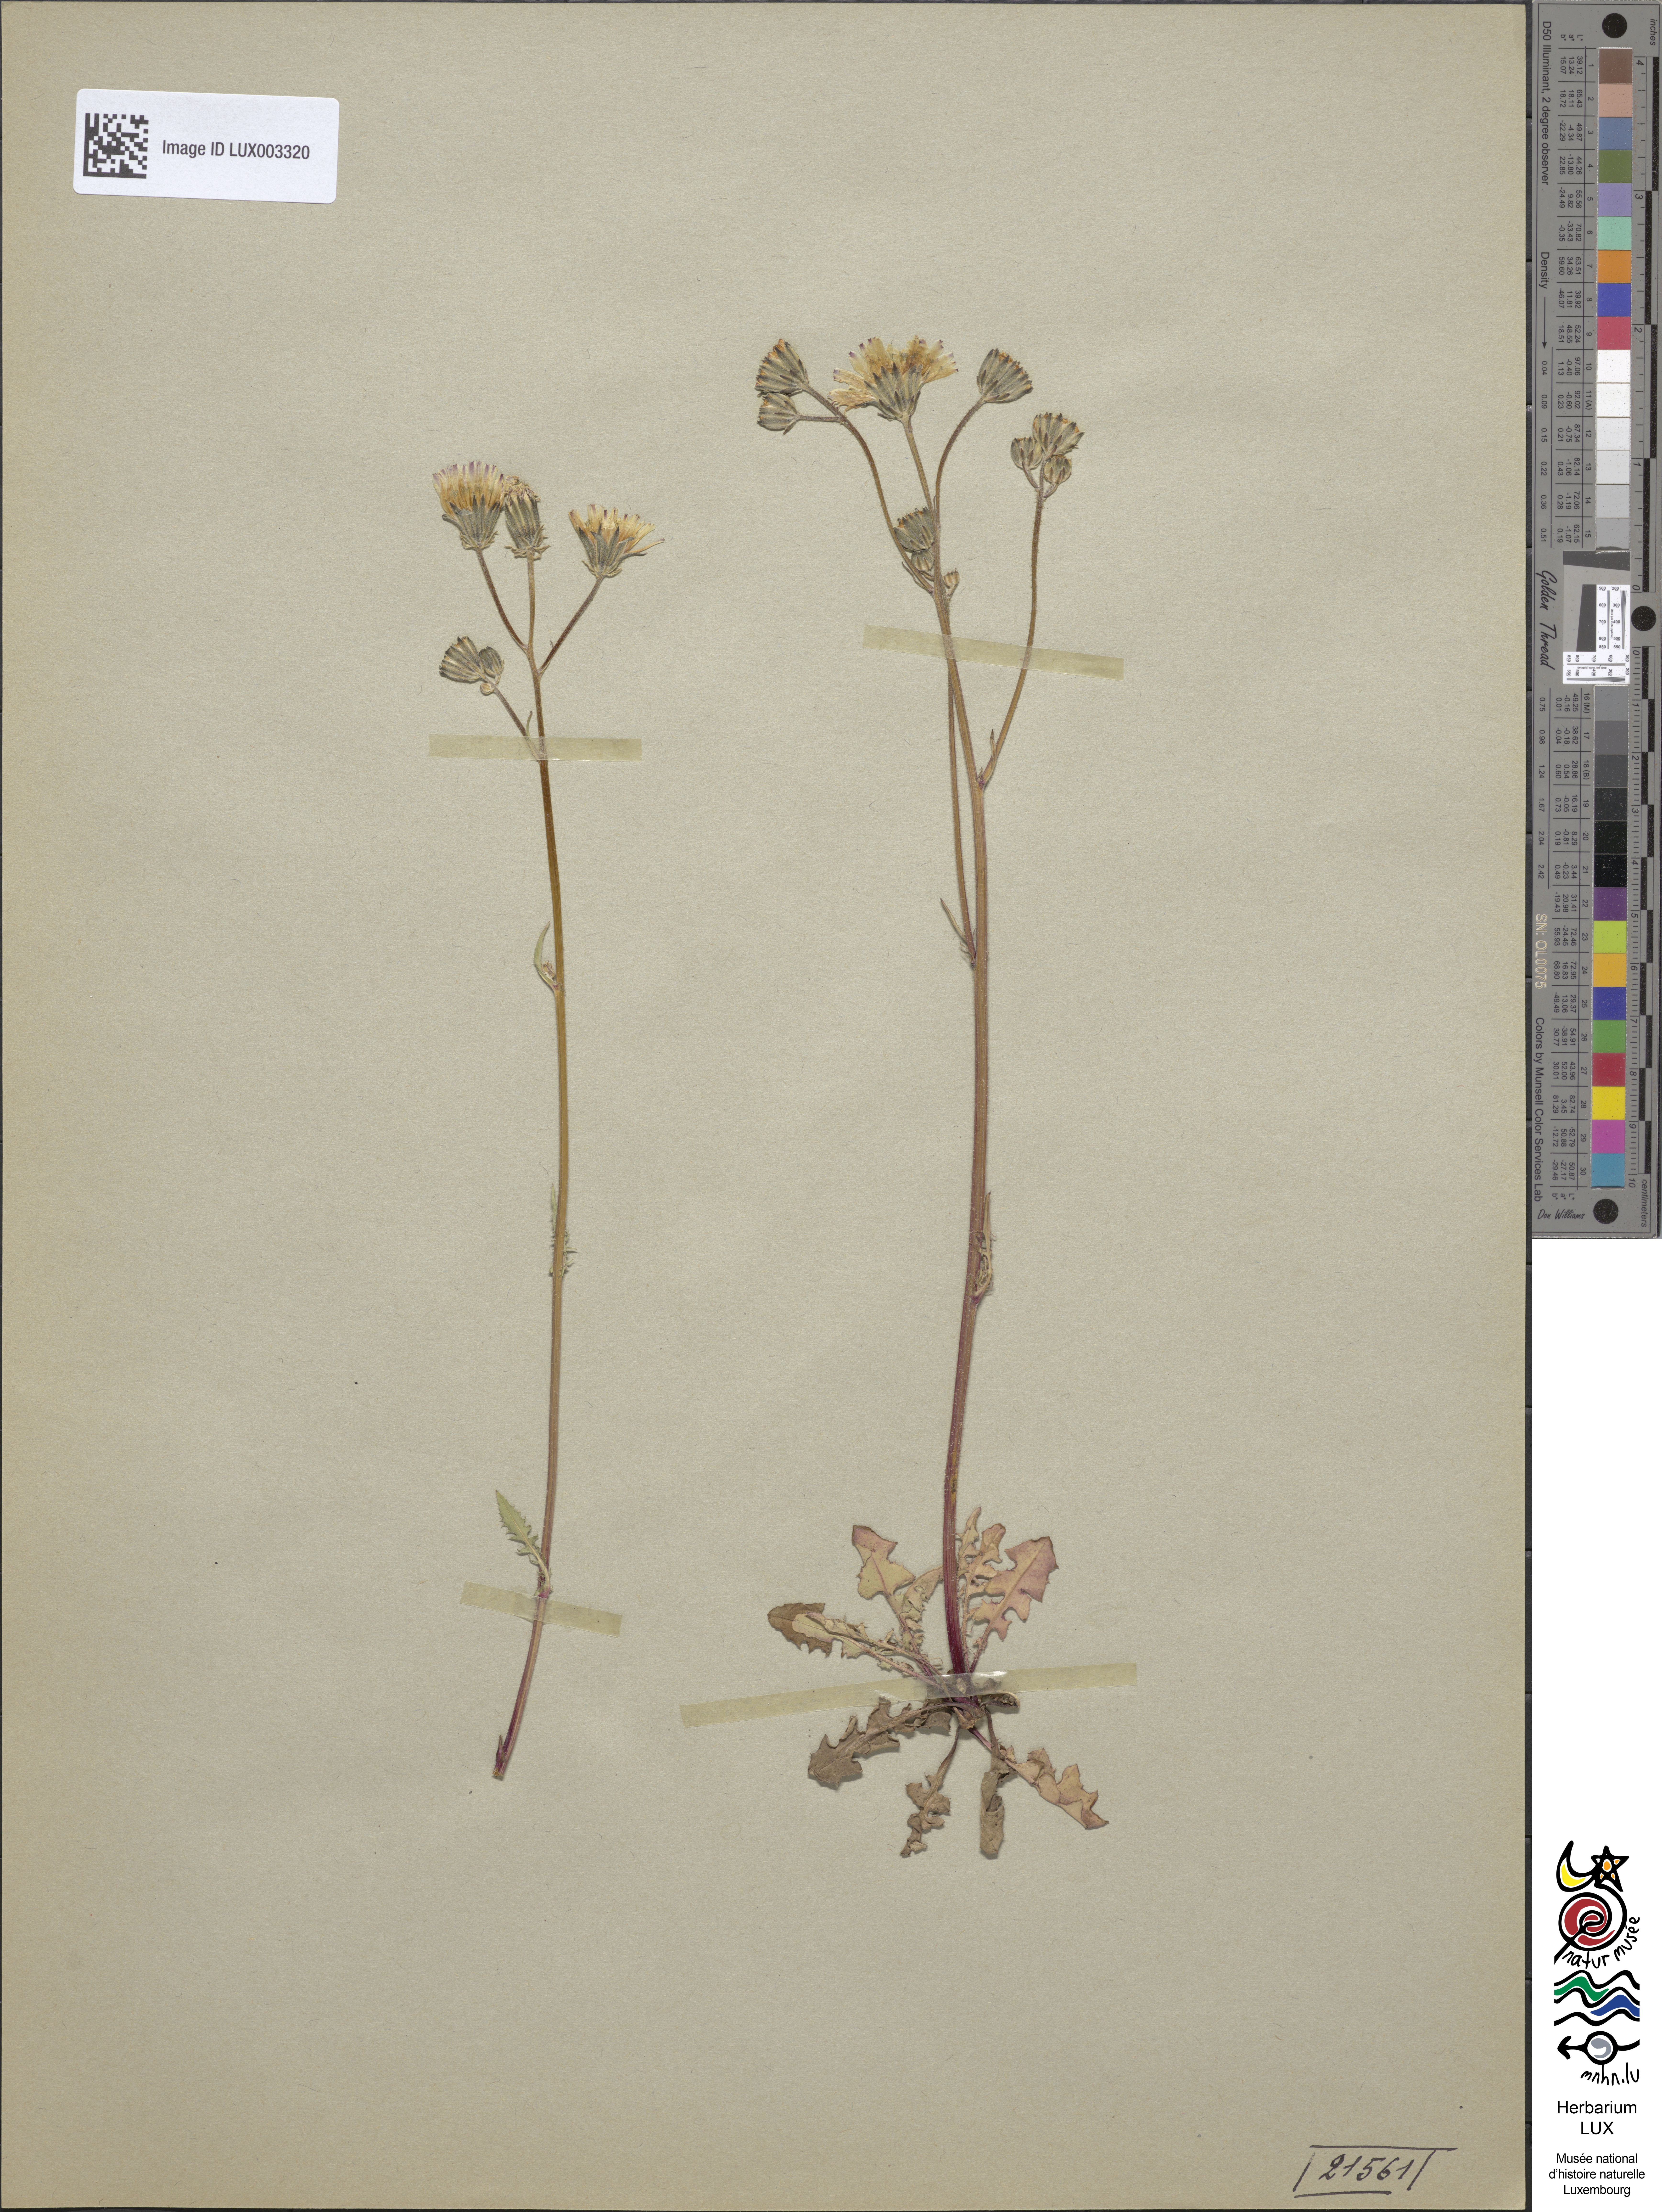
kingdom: Plantae
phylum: Tracheophyta
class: Magnoliopsida
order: Asterales
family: Asteraceae
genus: Crepis
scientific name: Crepis vesicaria
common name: Beaked hawksbeard
